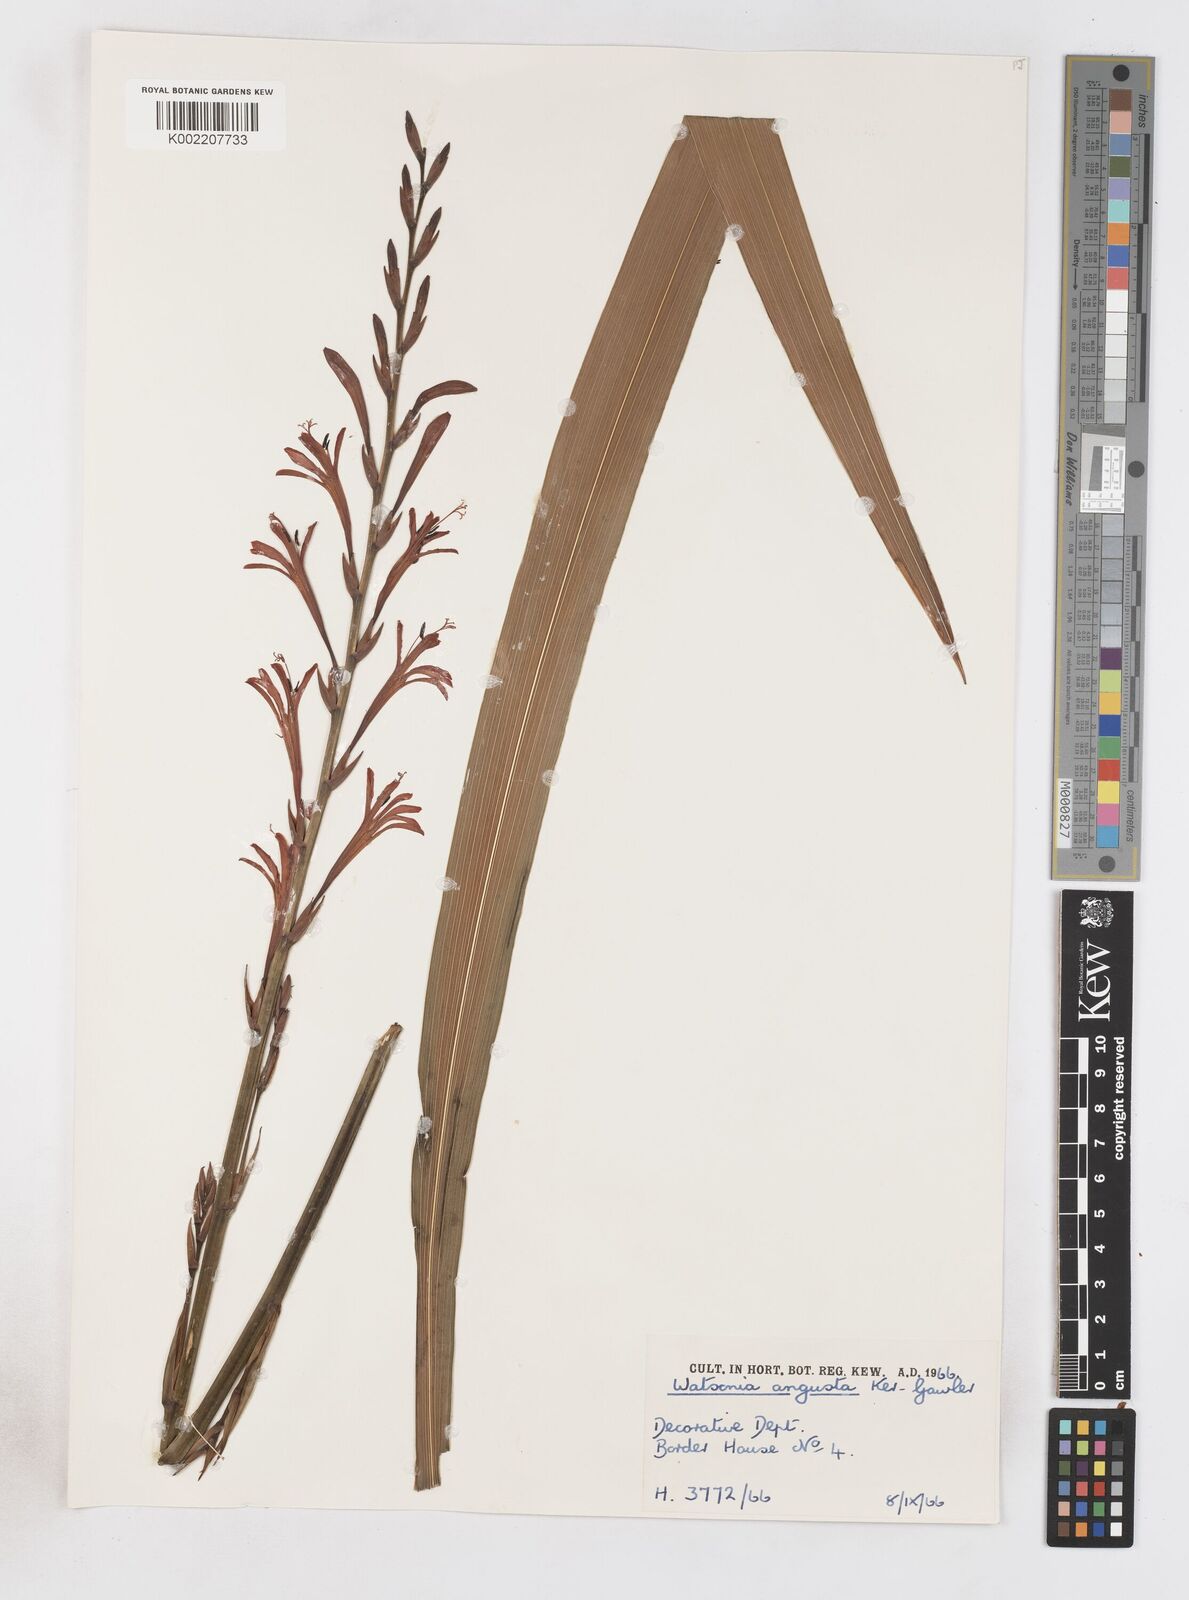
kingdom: Plantae
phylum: Tracheophyta
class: Liliopsida
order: Asparagales
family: Iridaceae
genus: Watsonia
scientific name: Watsonia angusta
